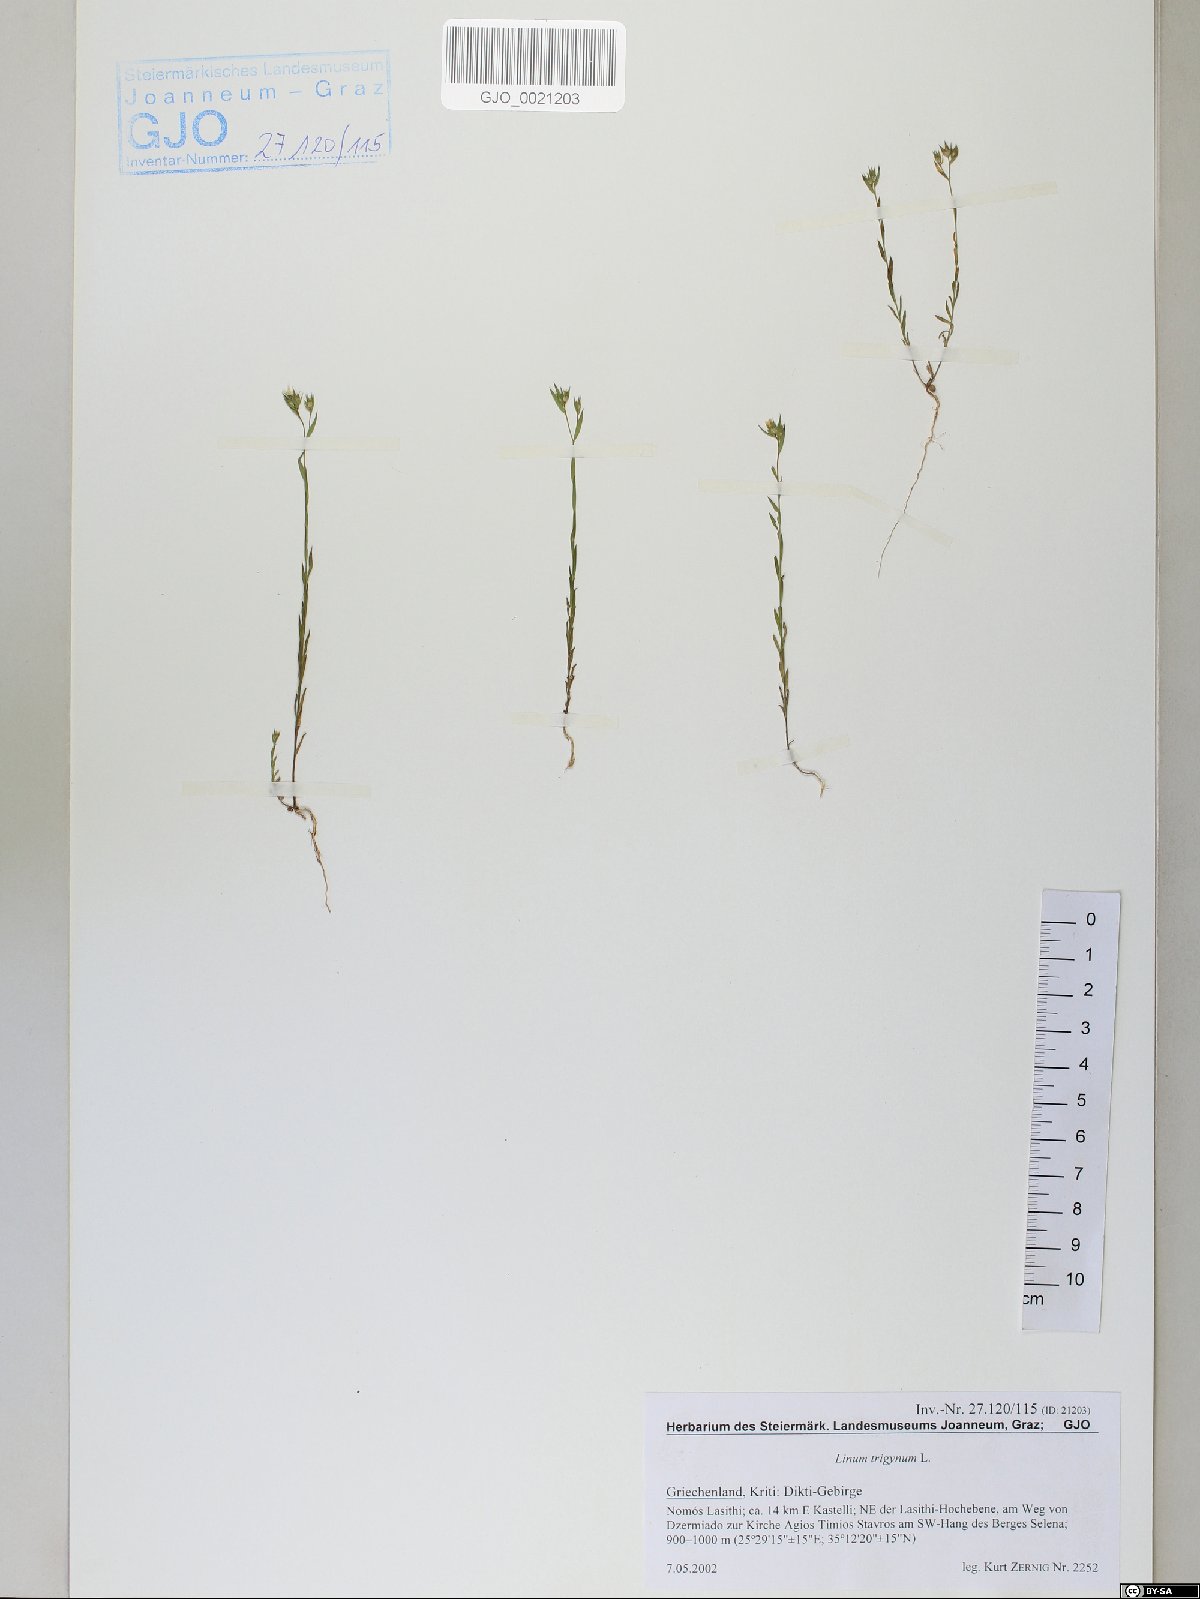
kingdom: Plantae
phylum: Tracheophyta
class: Magnoliopsida
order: Malpighiales
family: Linaceae
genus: Linum
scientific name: Linum trigynum
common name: French flax
